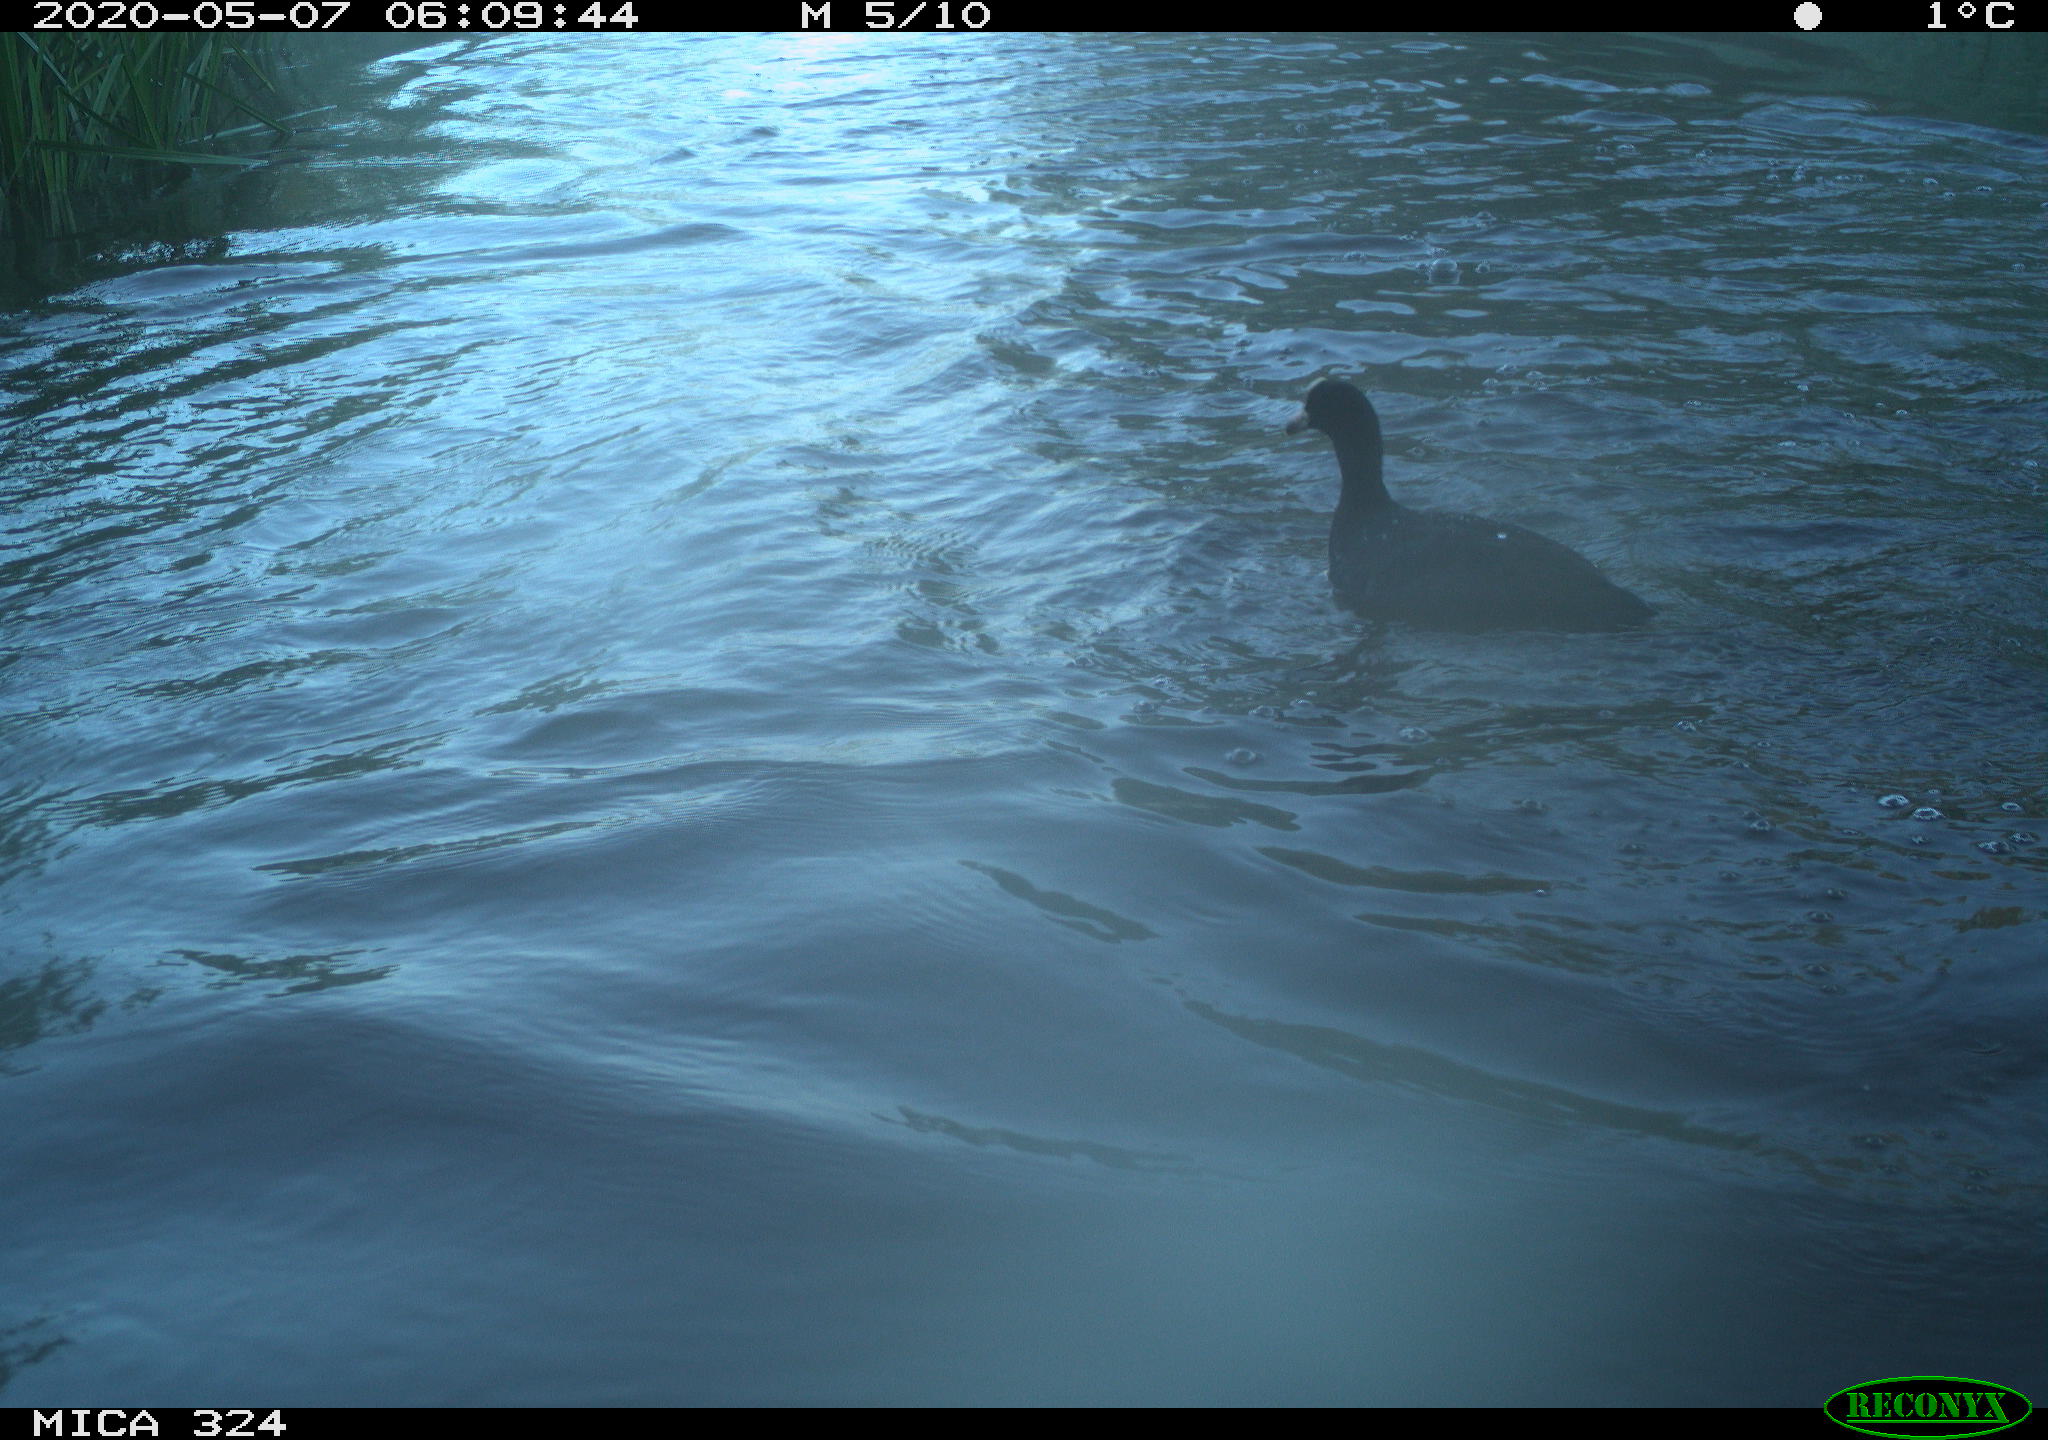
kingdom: Animalia
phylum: Chordata
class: Aves
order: Gruiformes
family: Rallidae
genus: Fulica
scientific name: Fulica atra
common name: Eurasian coot
